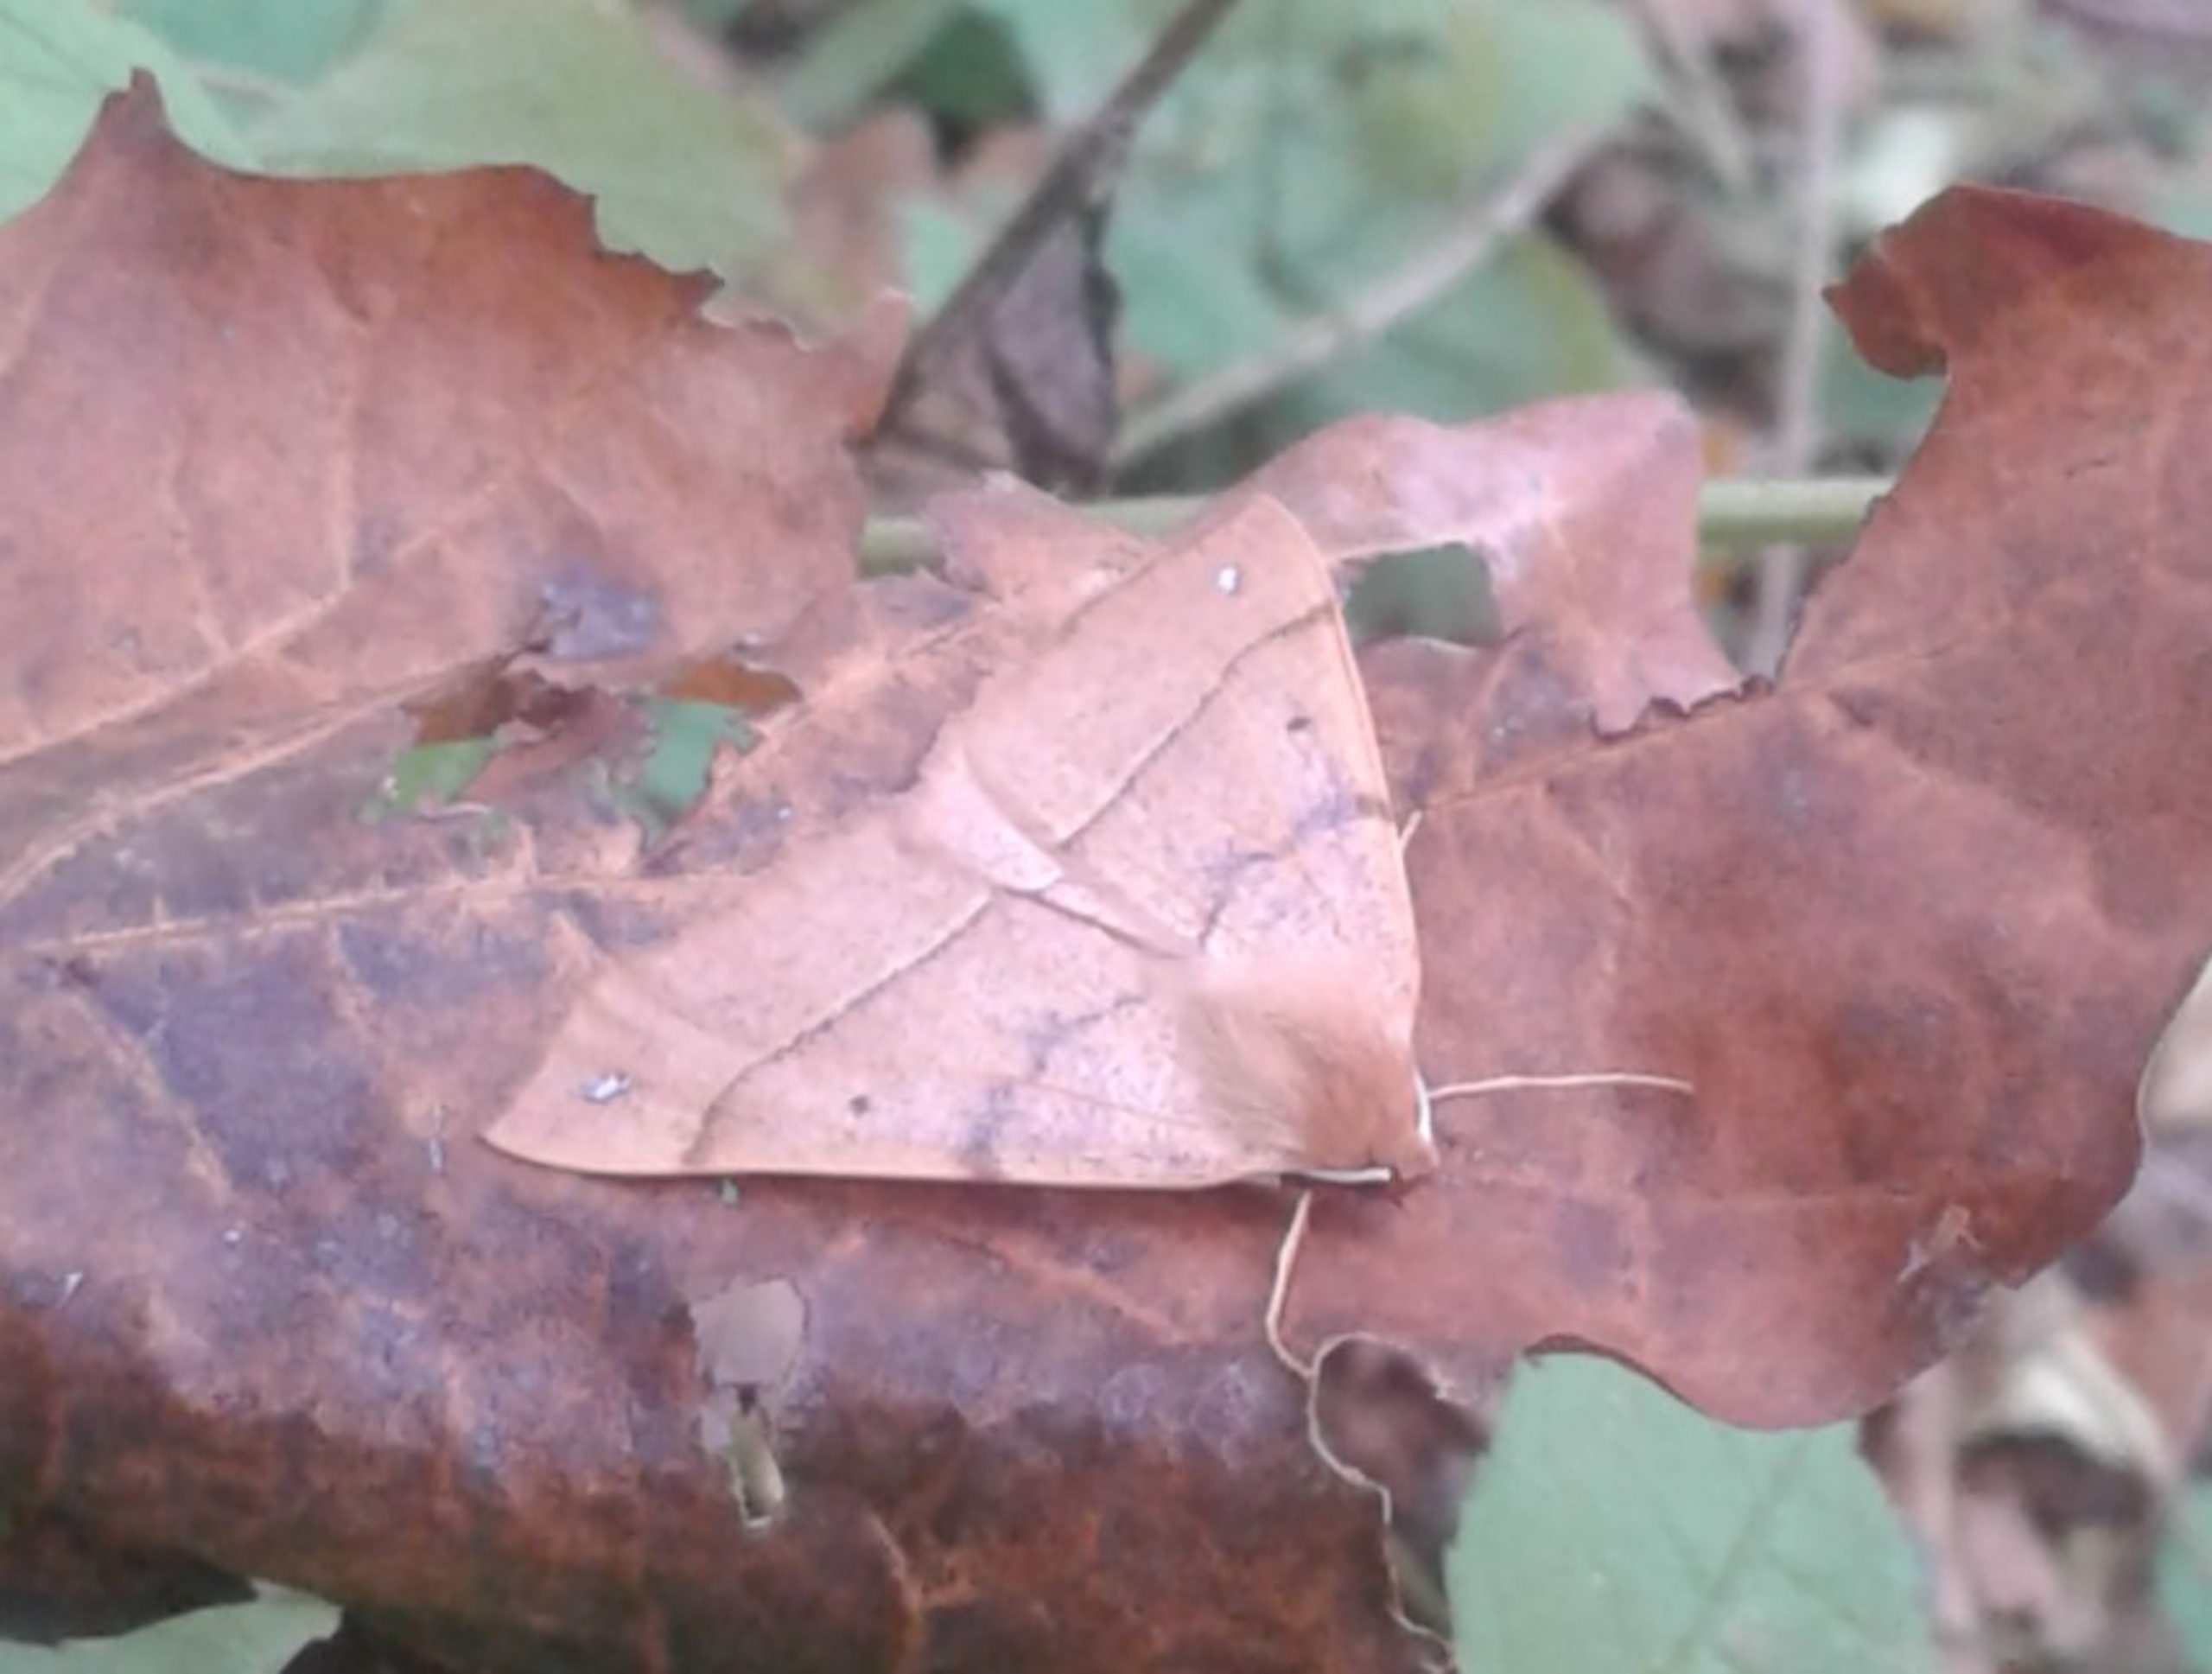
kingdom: Animalia
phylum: Arthropoda
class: Insecta
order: Lepidoptera
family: Geometridae
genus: Colotois
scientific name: Colotois pennaria
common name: Løvfaldsmåler
